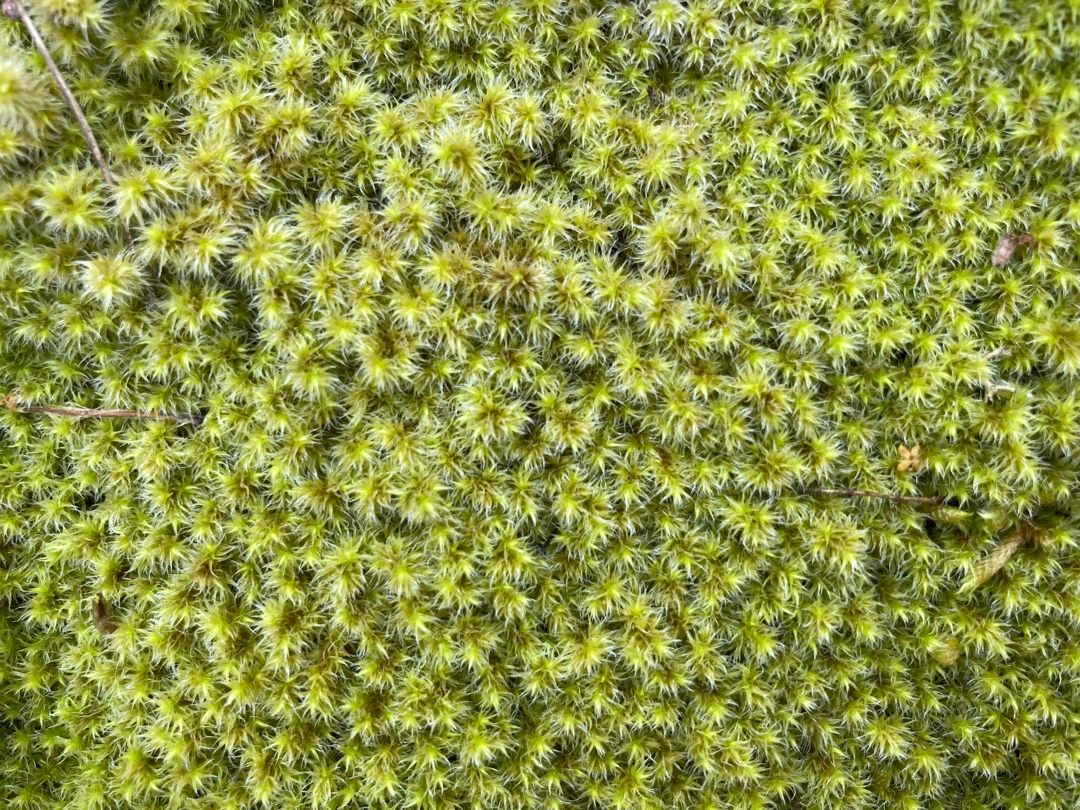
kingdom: Plantae
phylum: Bryophyta
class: Bryopsida
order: Grimmiales
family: Grimmiaceae
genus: Niphotrichum
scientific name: Niphotrichum elongatum
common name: Lang børstemos
